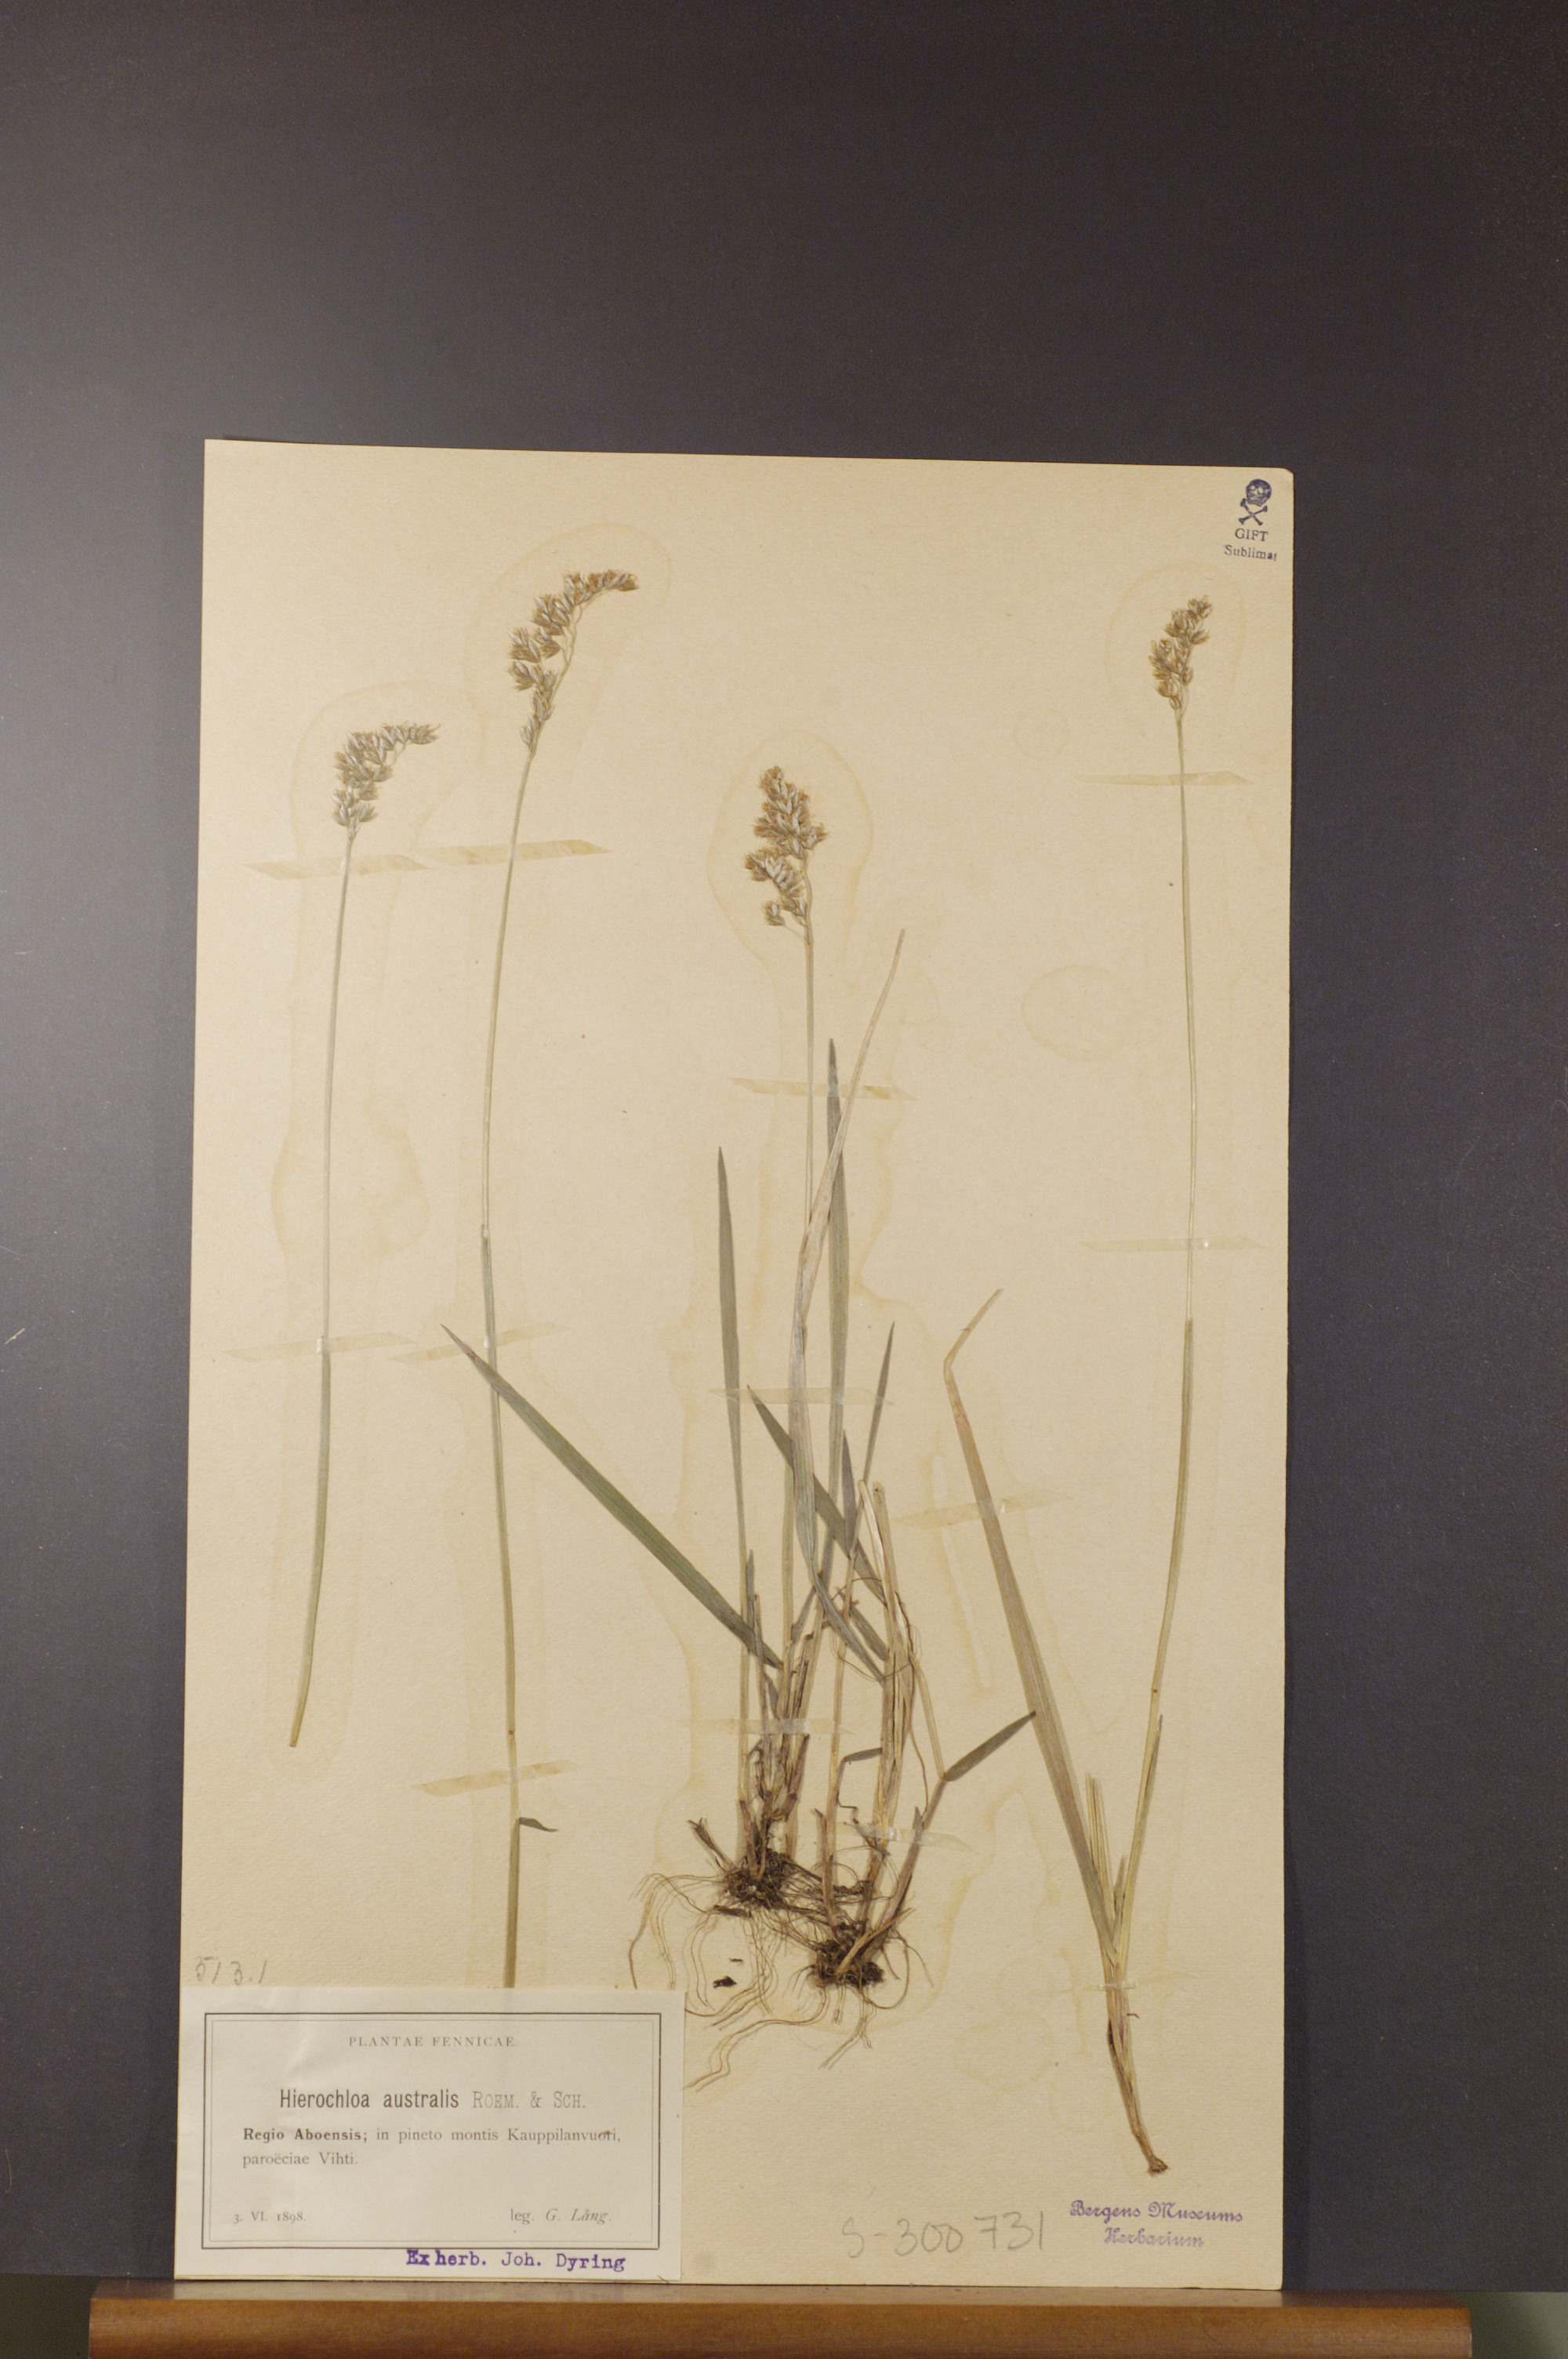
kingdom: Plantae
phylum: Tracheophyta
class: Liliopsida
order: Poales
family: Poaceae
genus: Anthoxanthum
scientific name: Anthoxanthum australe
